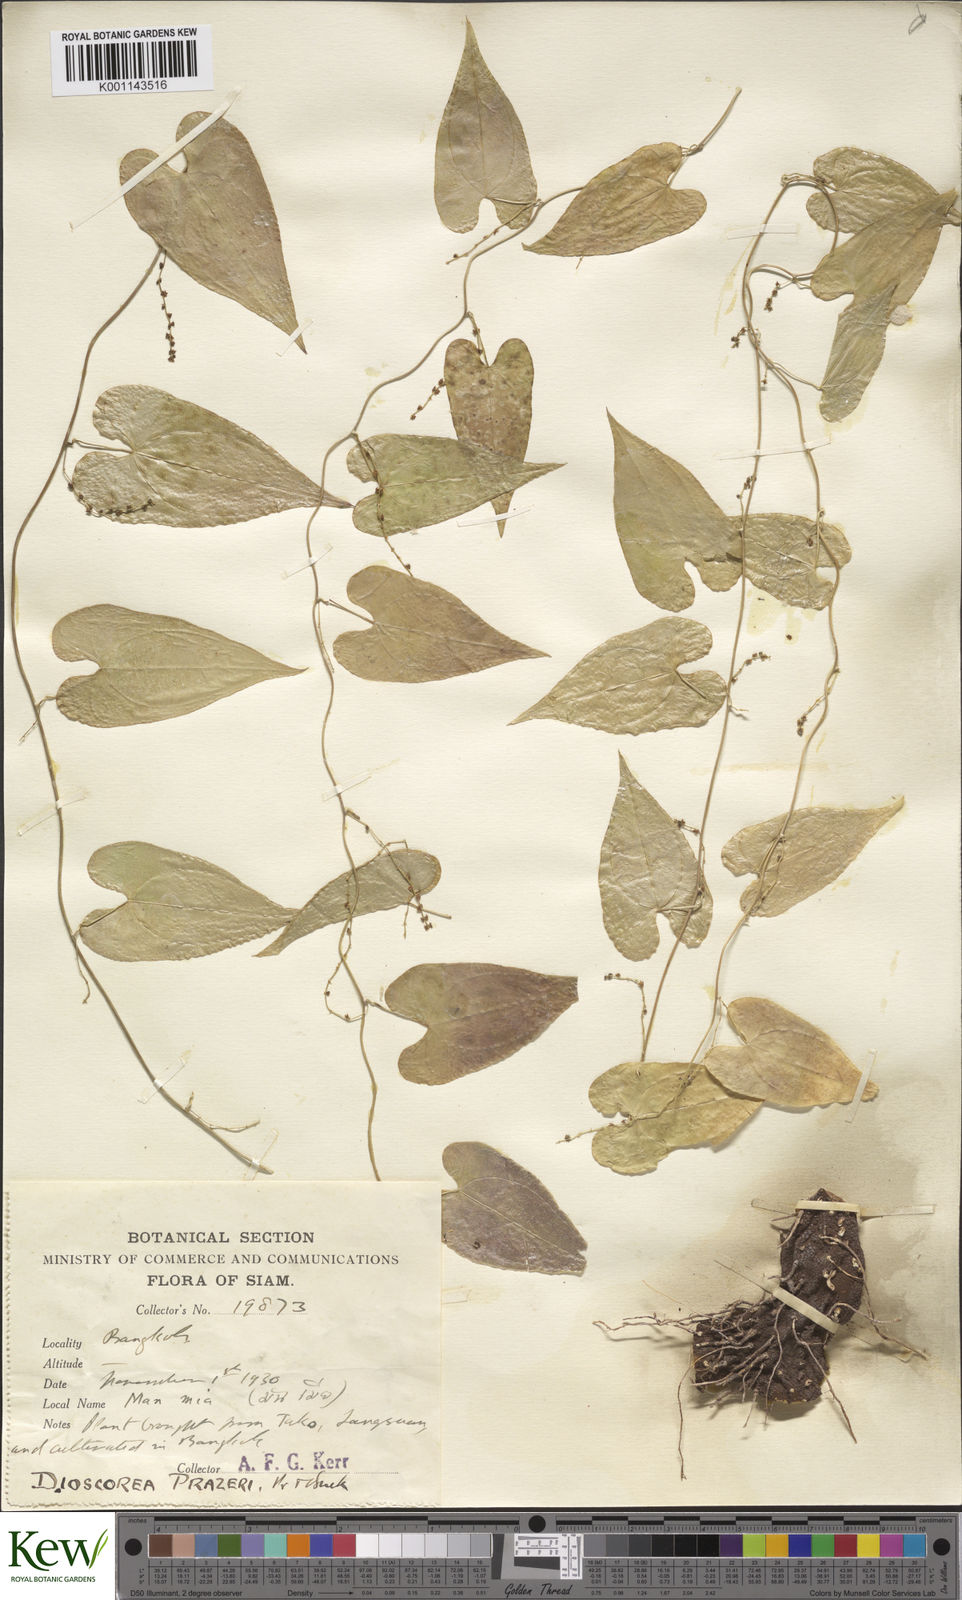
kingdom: Plantae
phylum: Tracheophyta
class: Liliopsida
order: Dioscoreales
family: Dioscoreaceae
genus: Dioscorea
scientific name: Dioscorea prazeri
